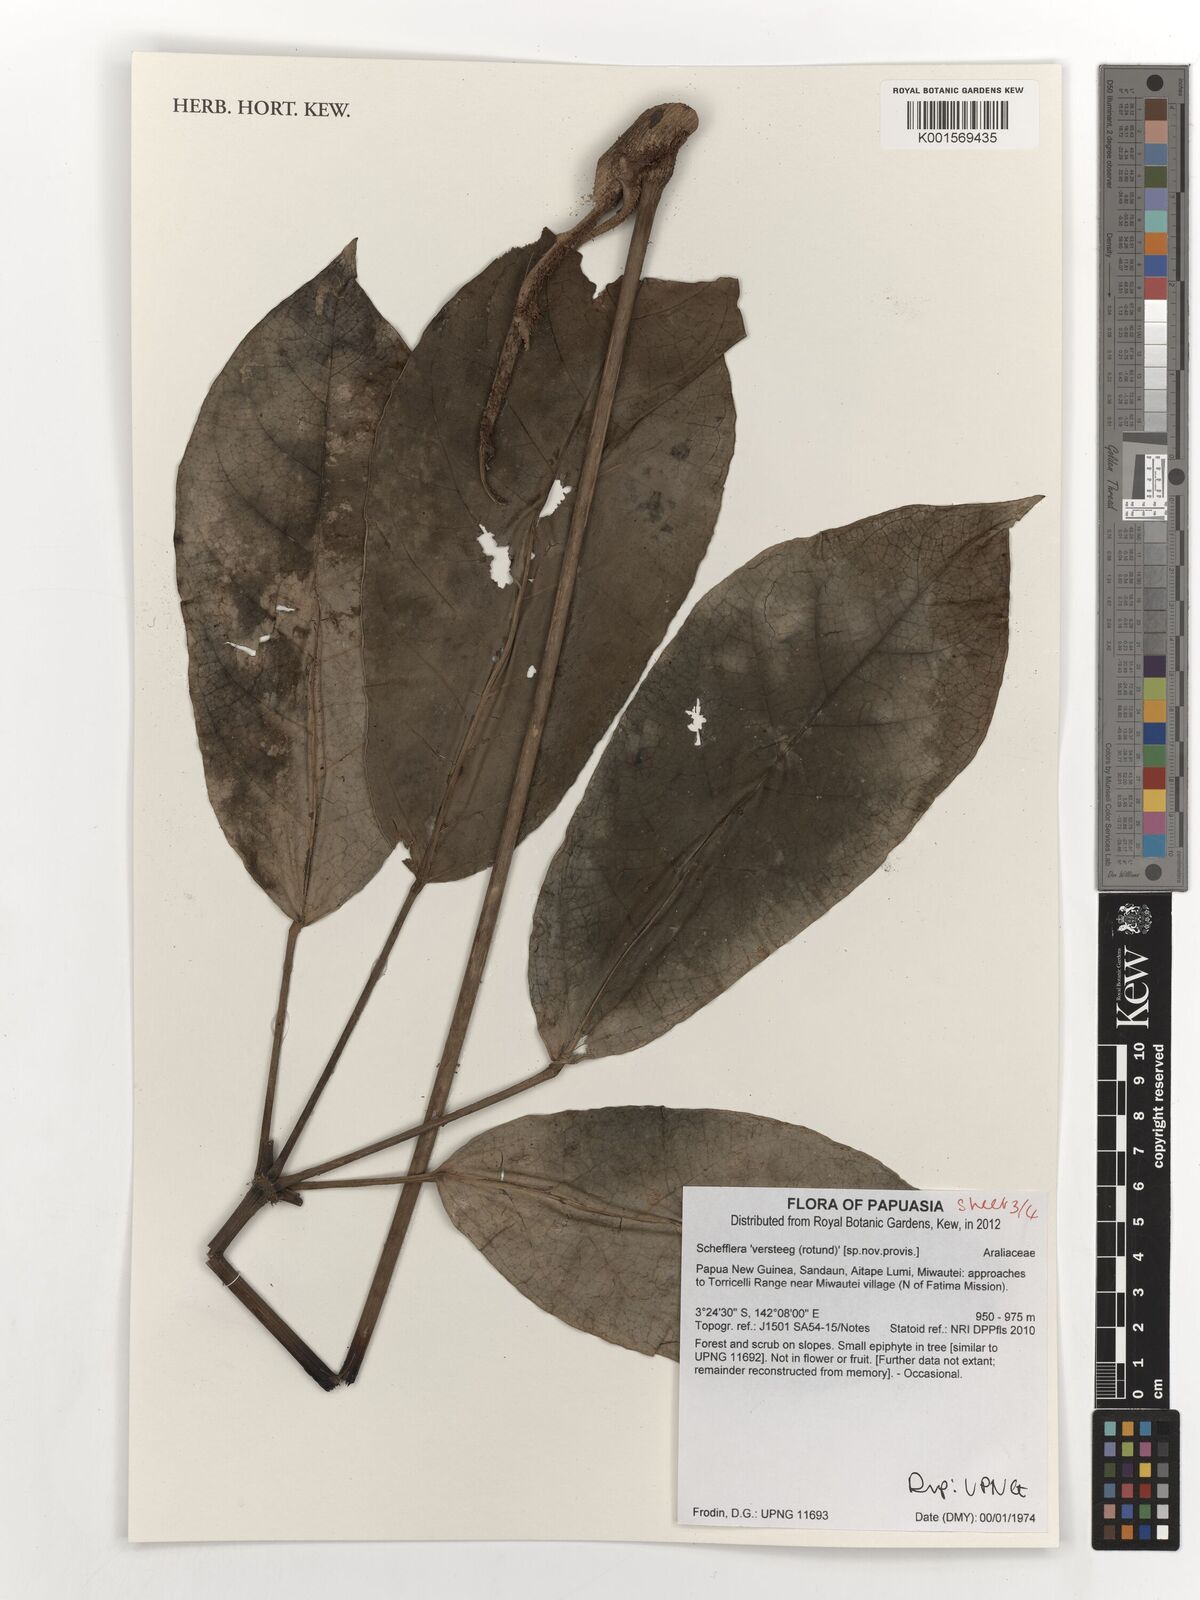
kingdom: Plantae
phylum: Tracheophyta
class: Magnoliopsida
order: Apiales
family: Araliaceae
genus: Schefflera
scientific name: Schefflera
